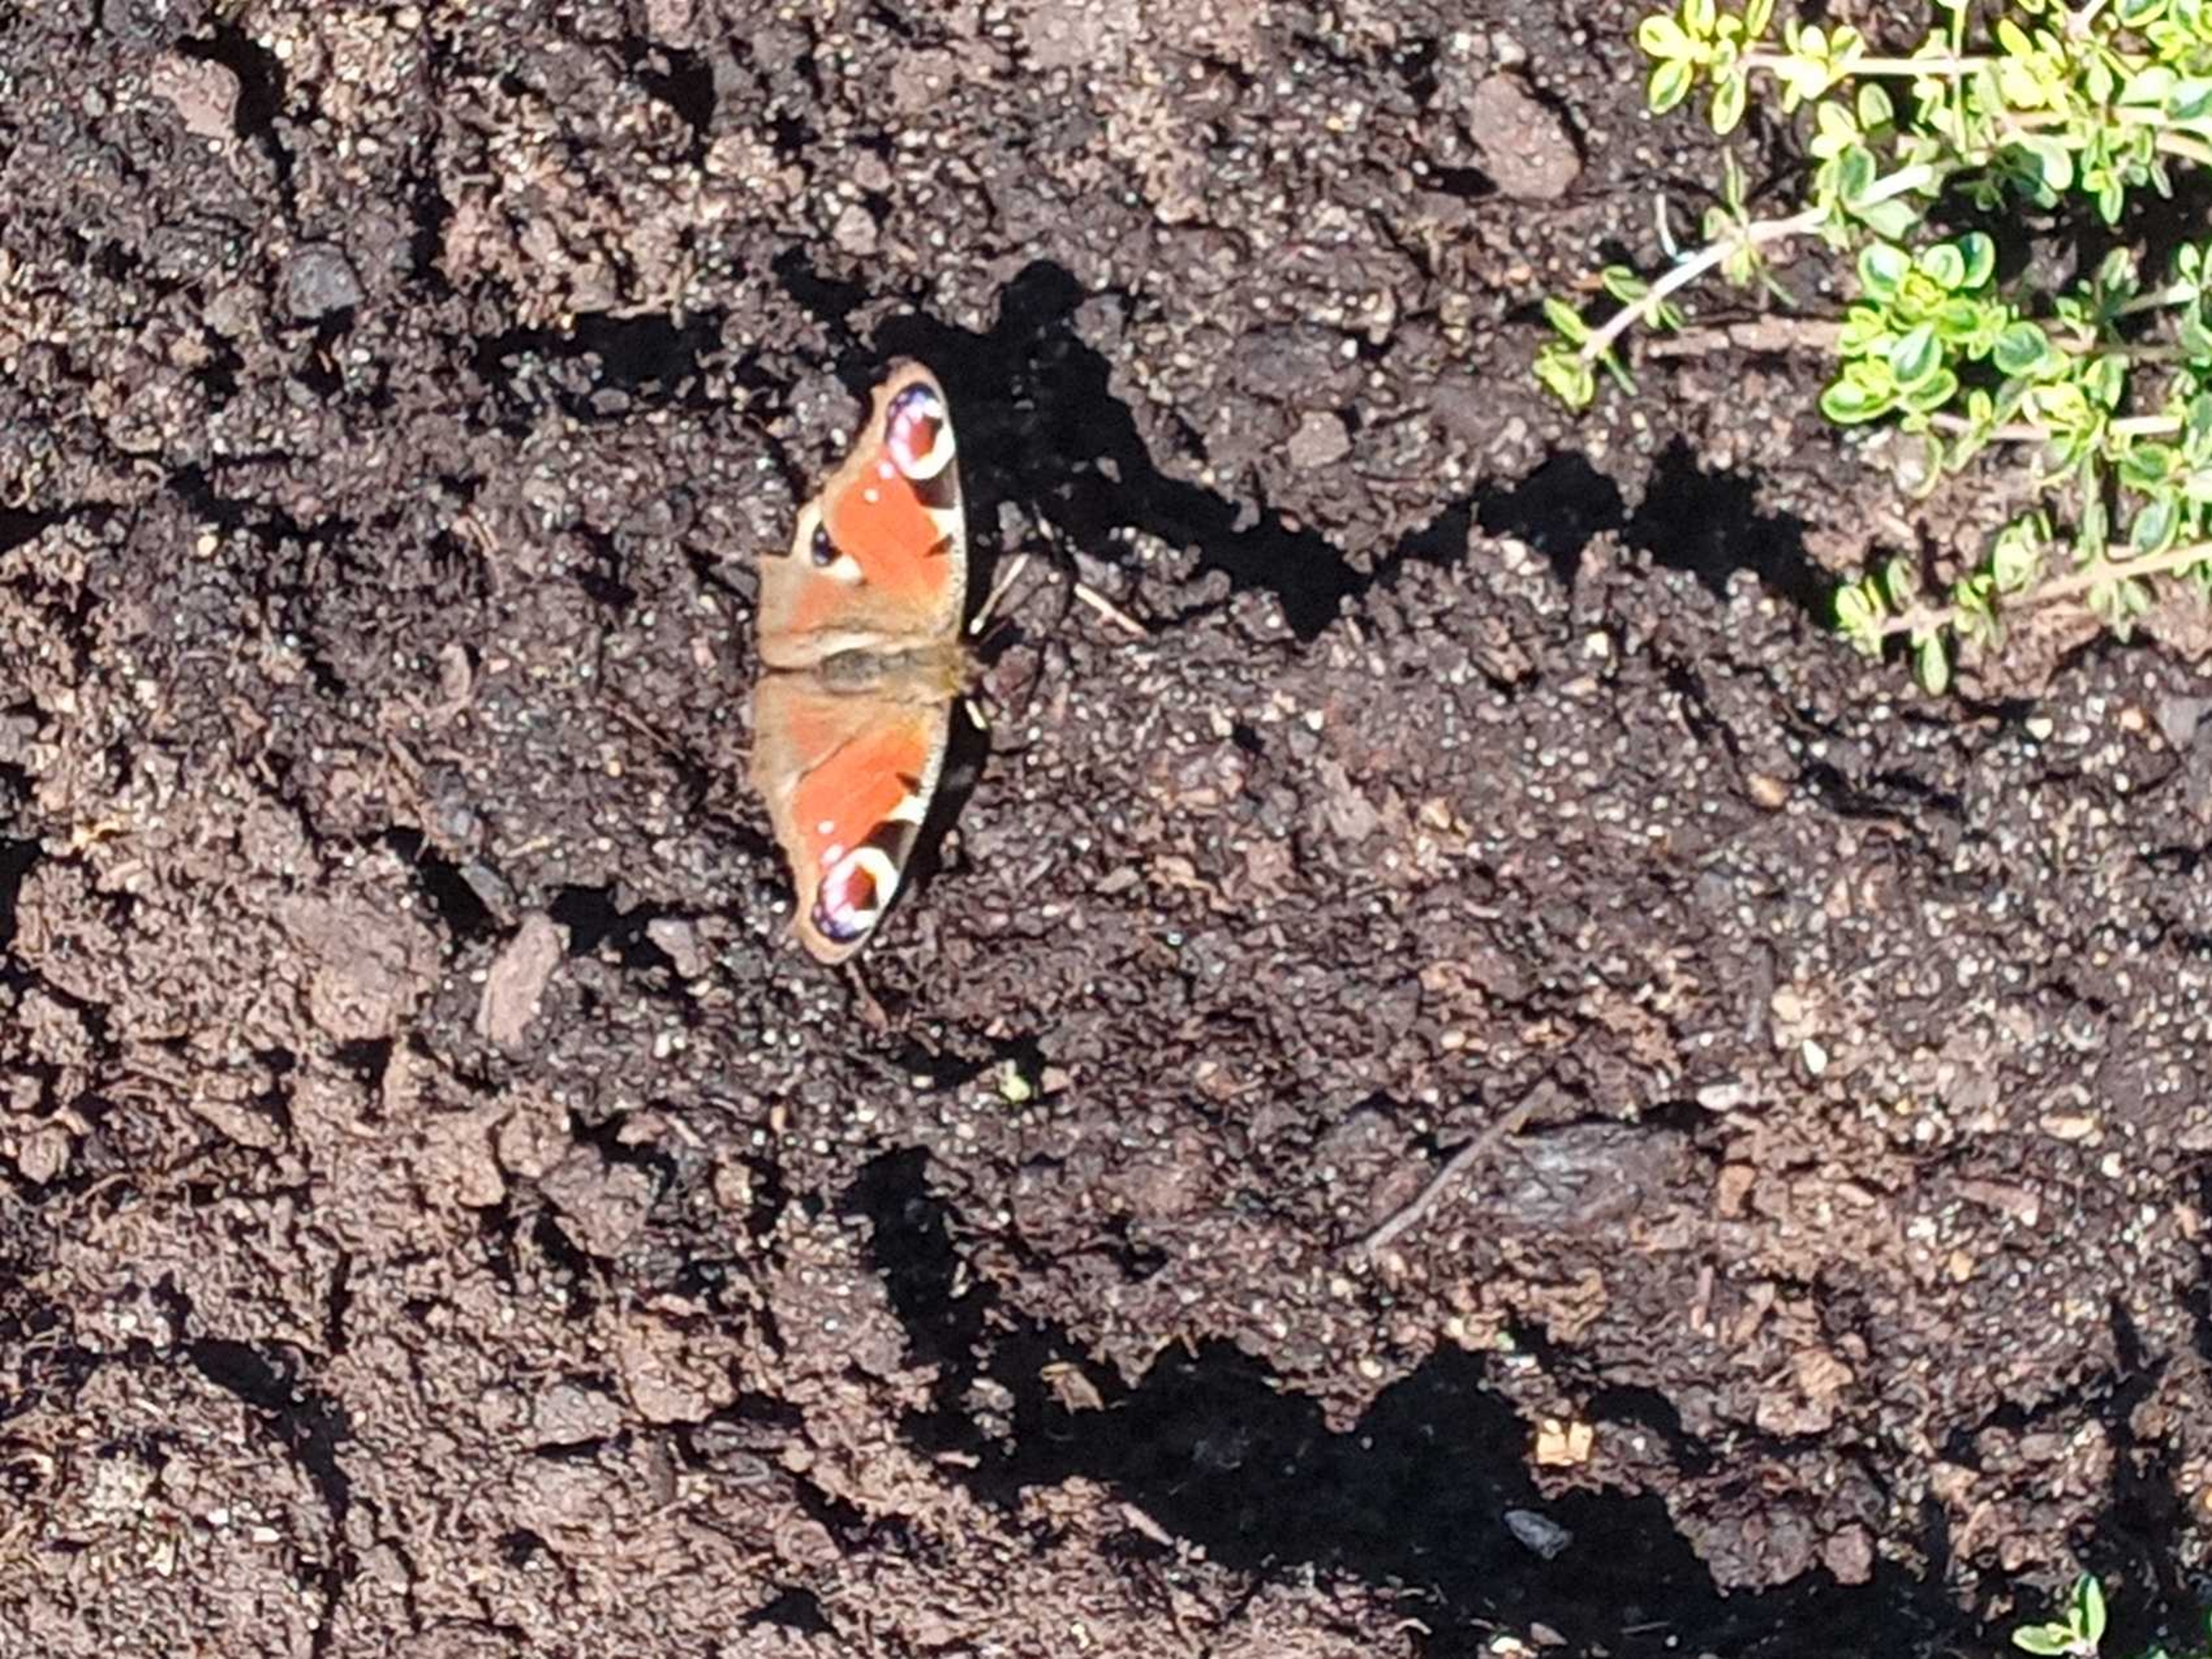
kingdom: Animalia
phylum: Arthropoda
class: Insecta
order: Lepidoptera
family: Nymphalidae
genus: Aglais
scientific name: Aglais io
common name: Dagpåfugleøje
